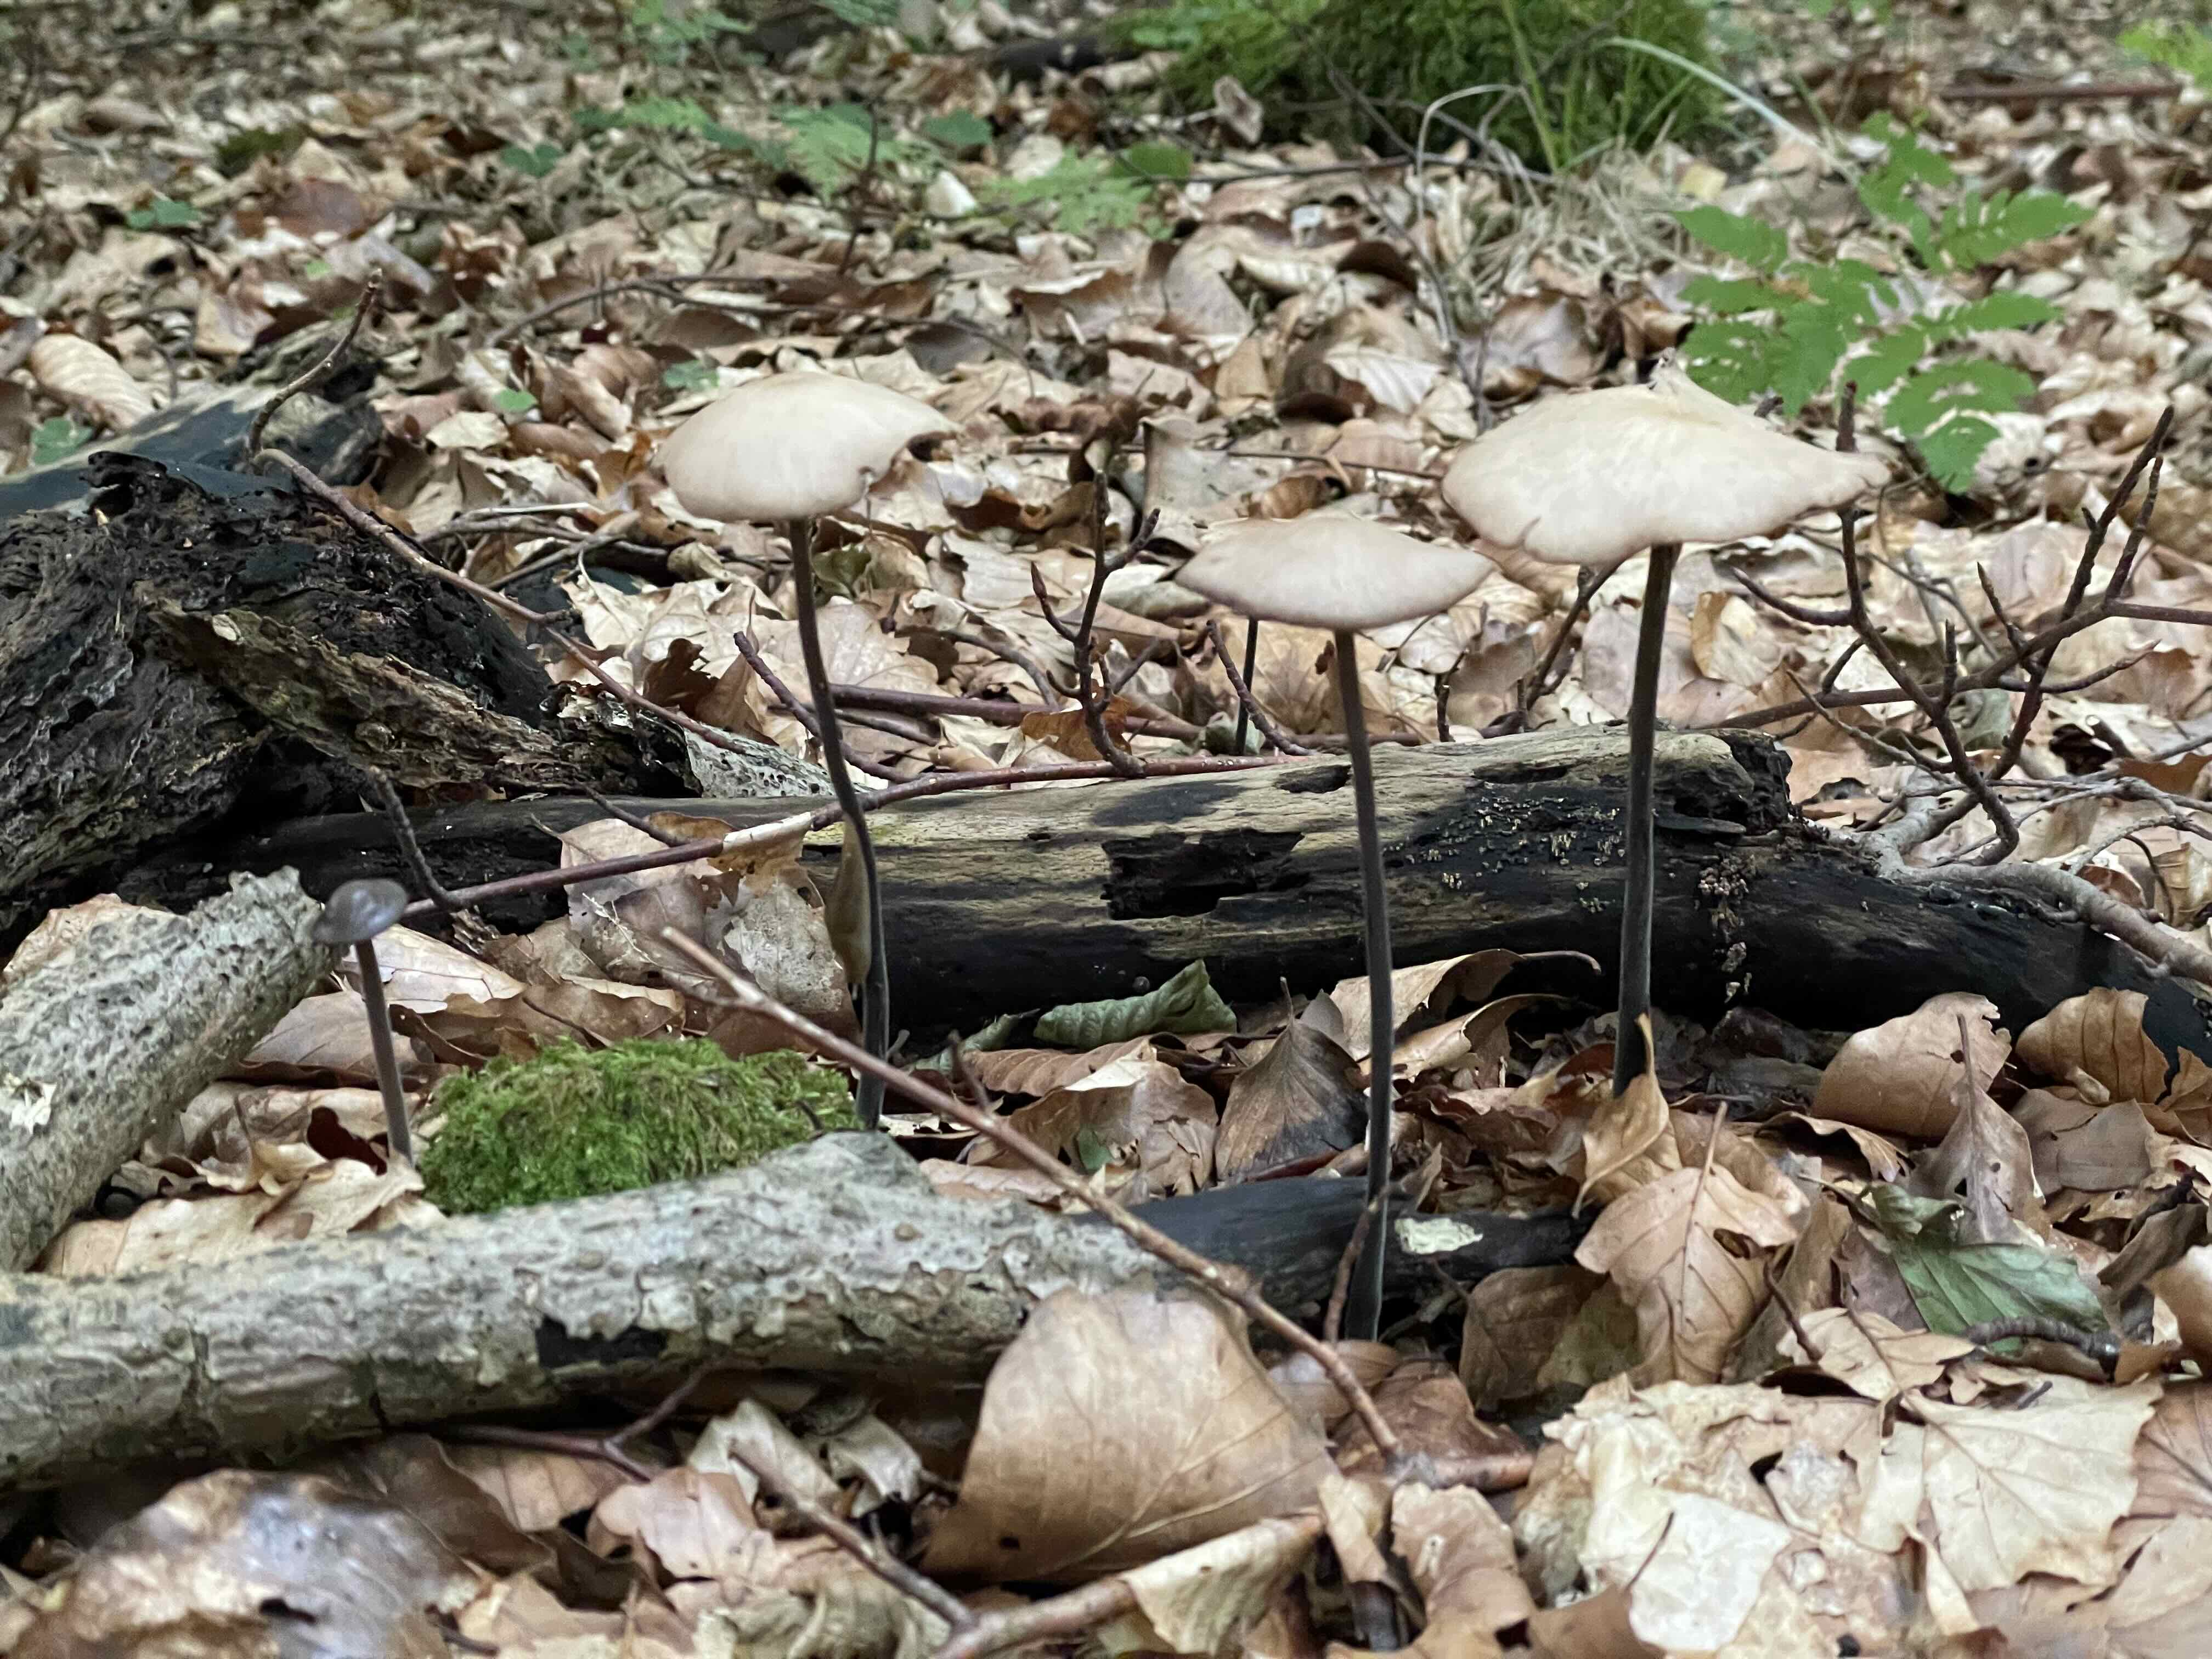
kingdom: Fungi
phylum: Basidiomycota
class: Agaricomycetes
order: Agaricales
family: Omphalotaceae
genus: Mycetinis
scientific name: Mycetinis alliaceus
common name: stor løghat
